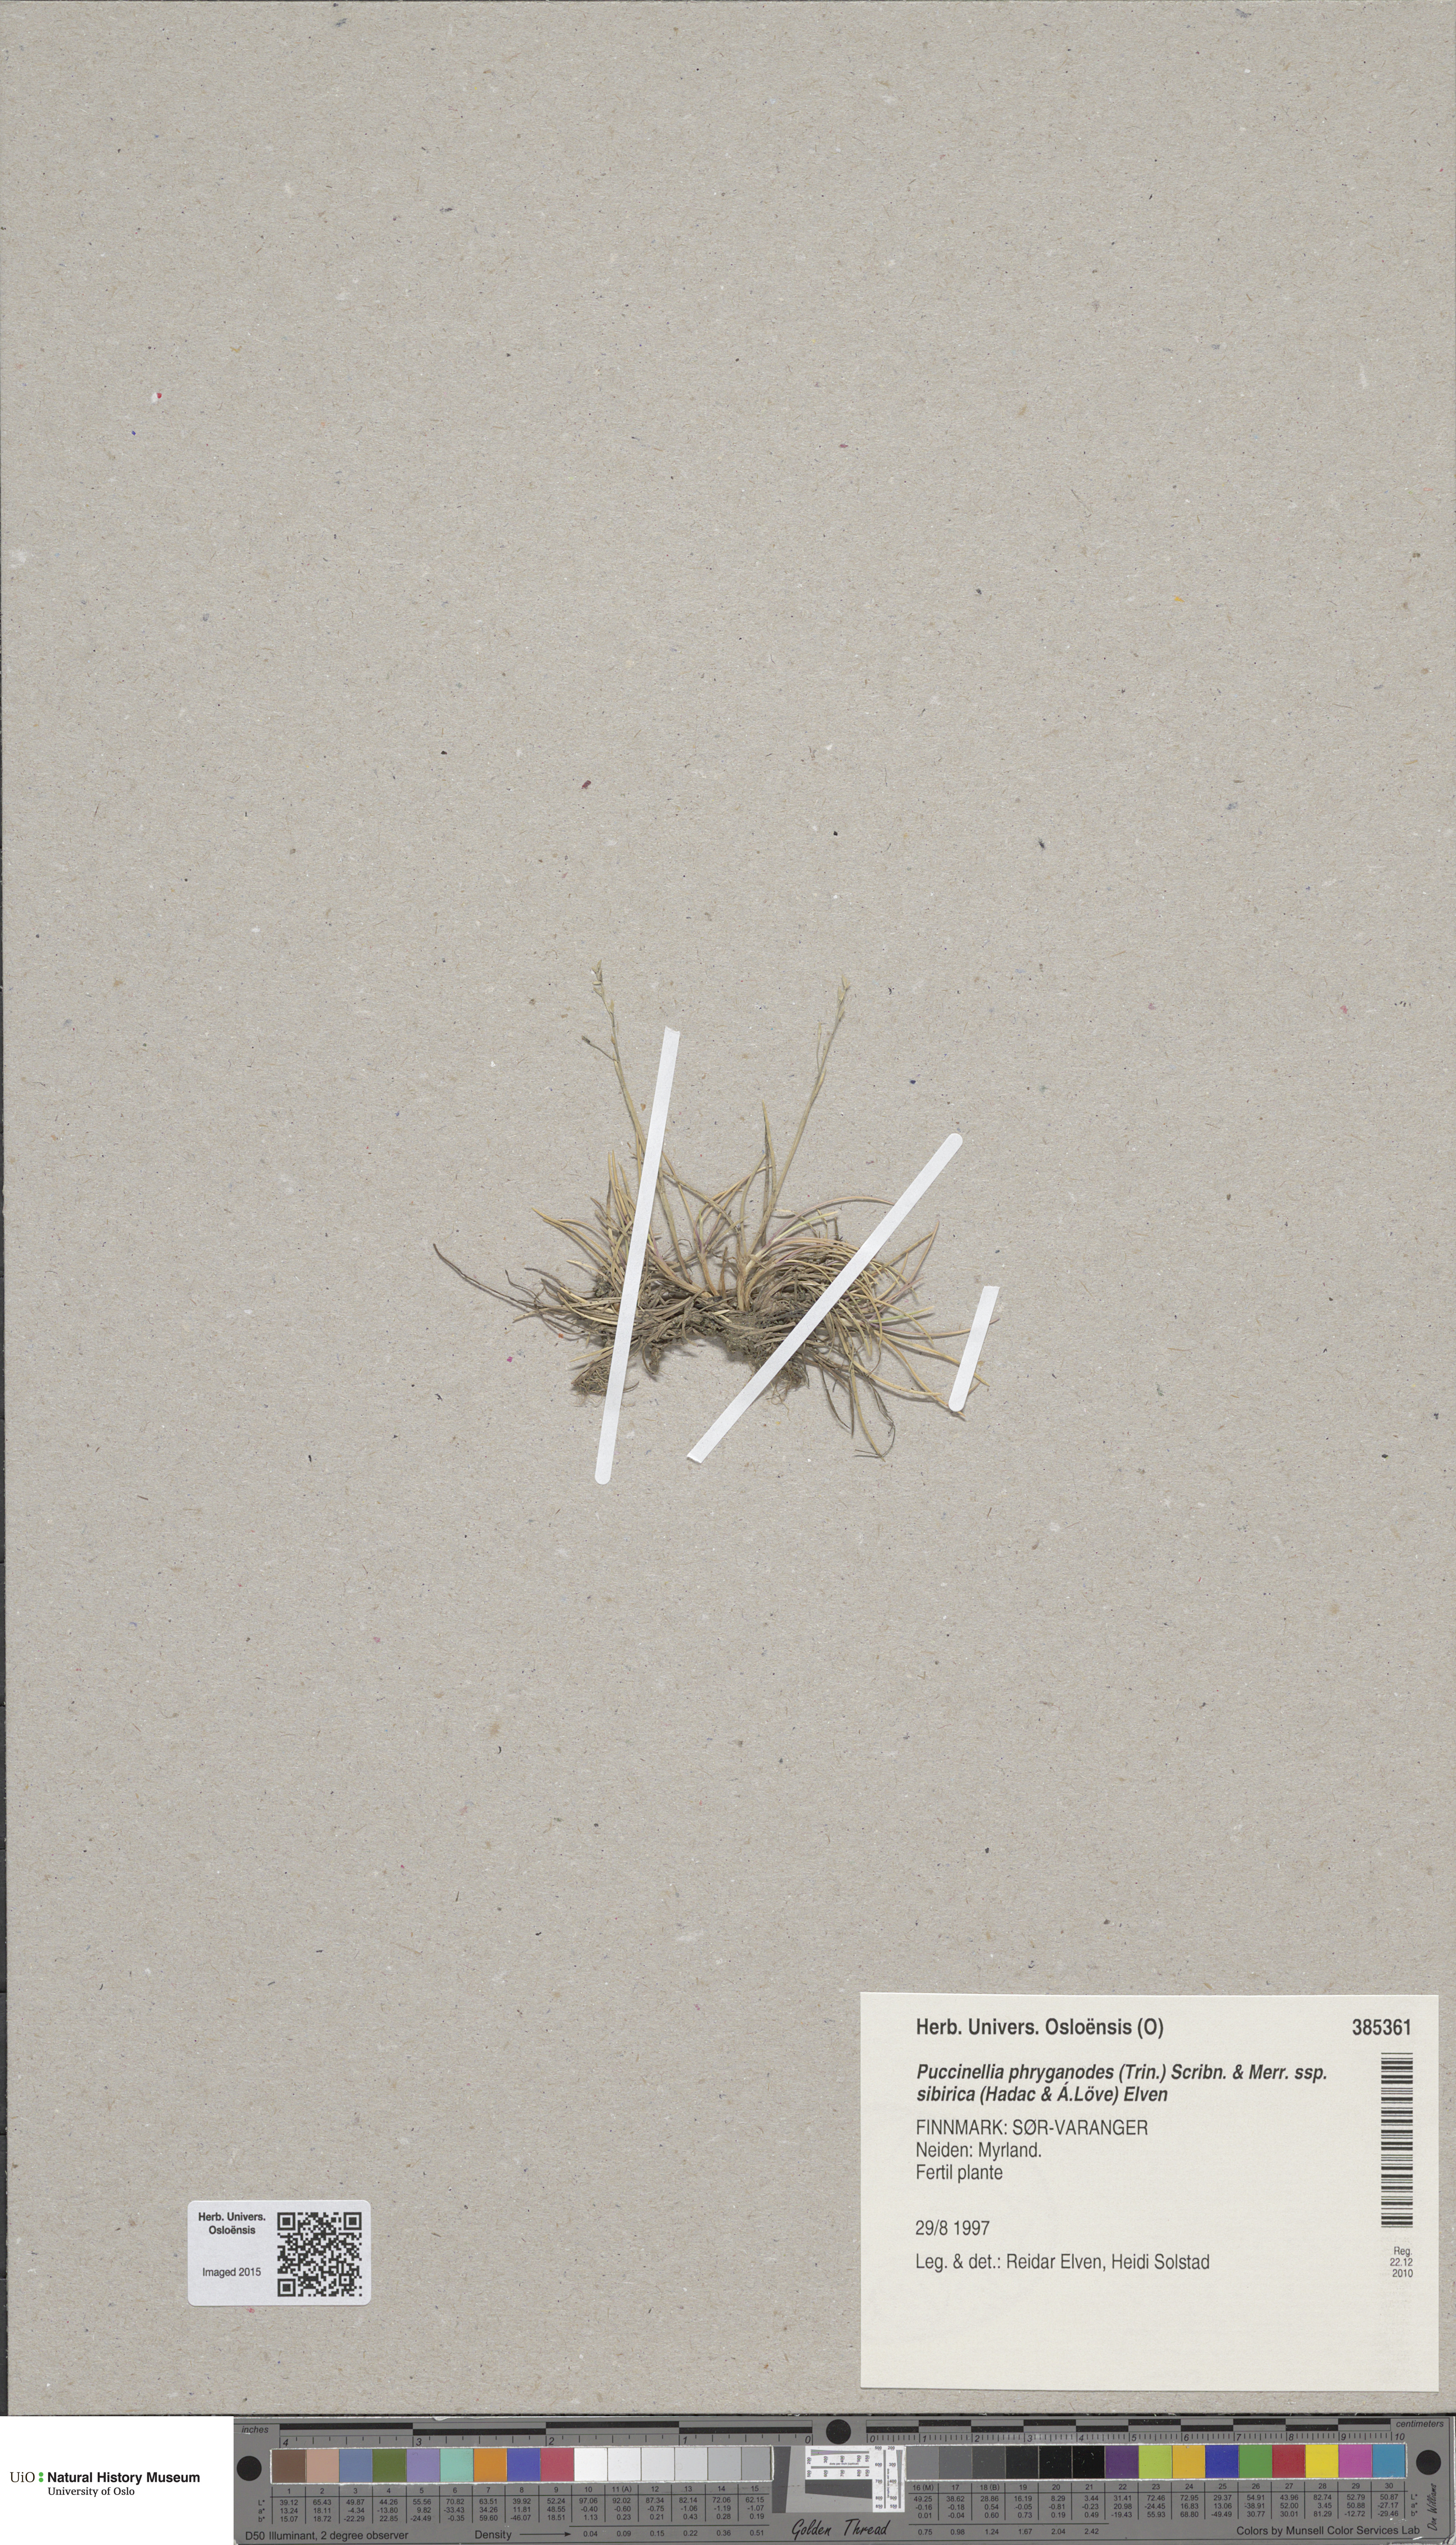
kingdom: Plantae
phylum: Tracheophyta
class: Liliopsida
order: Poales
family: Poaceae
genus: Puccinellia
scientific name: Puccinellia phryganodes
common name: Creeping alkaligrass
